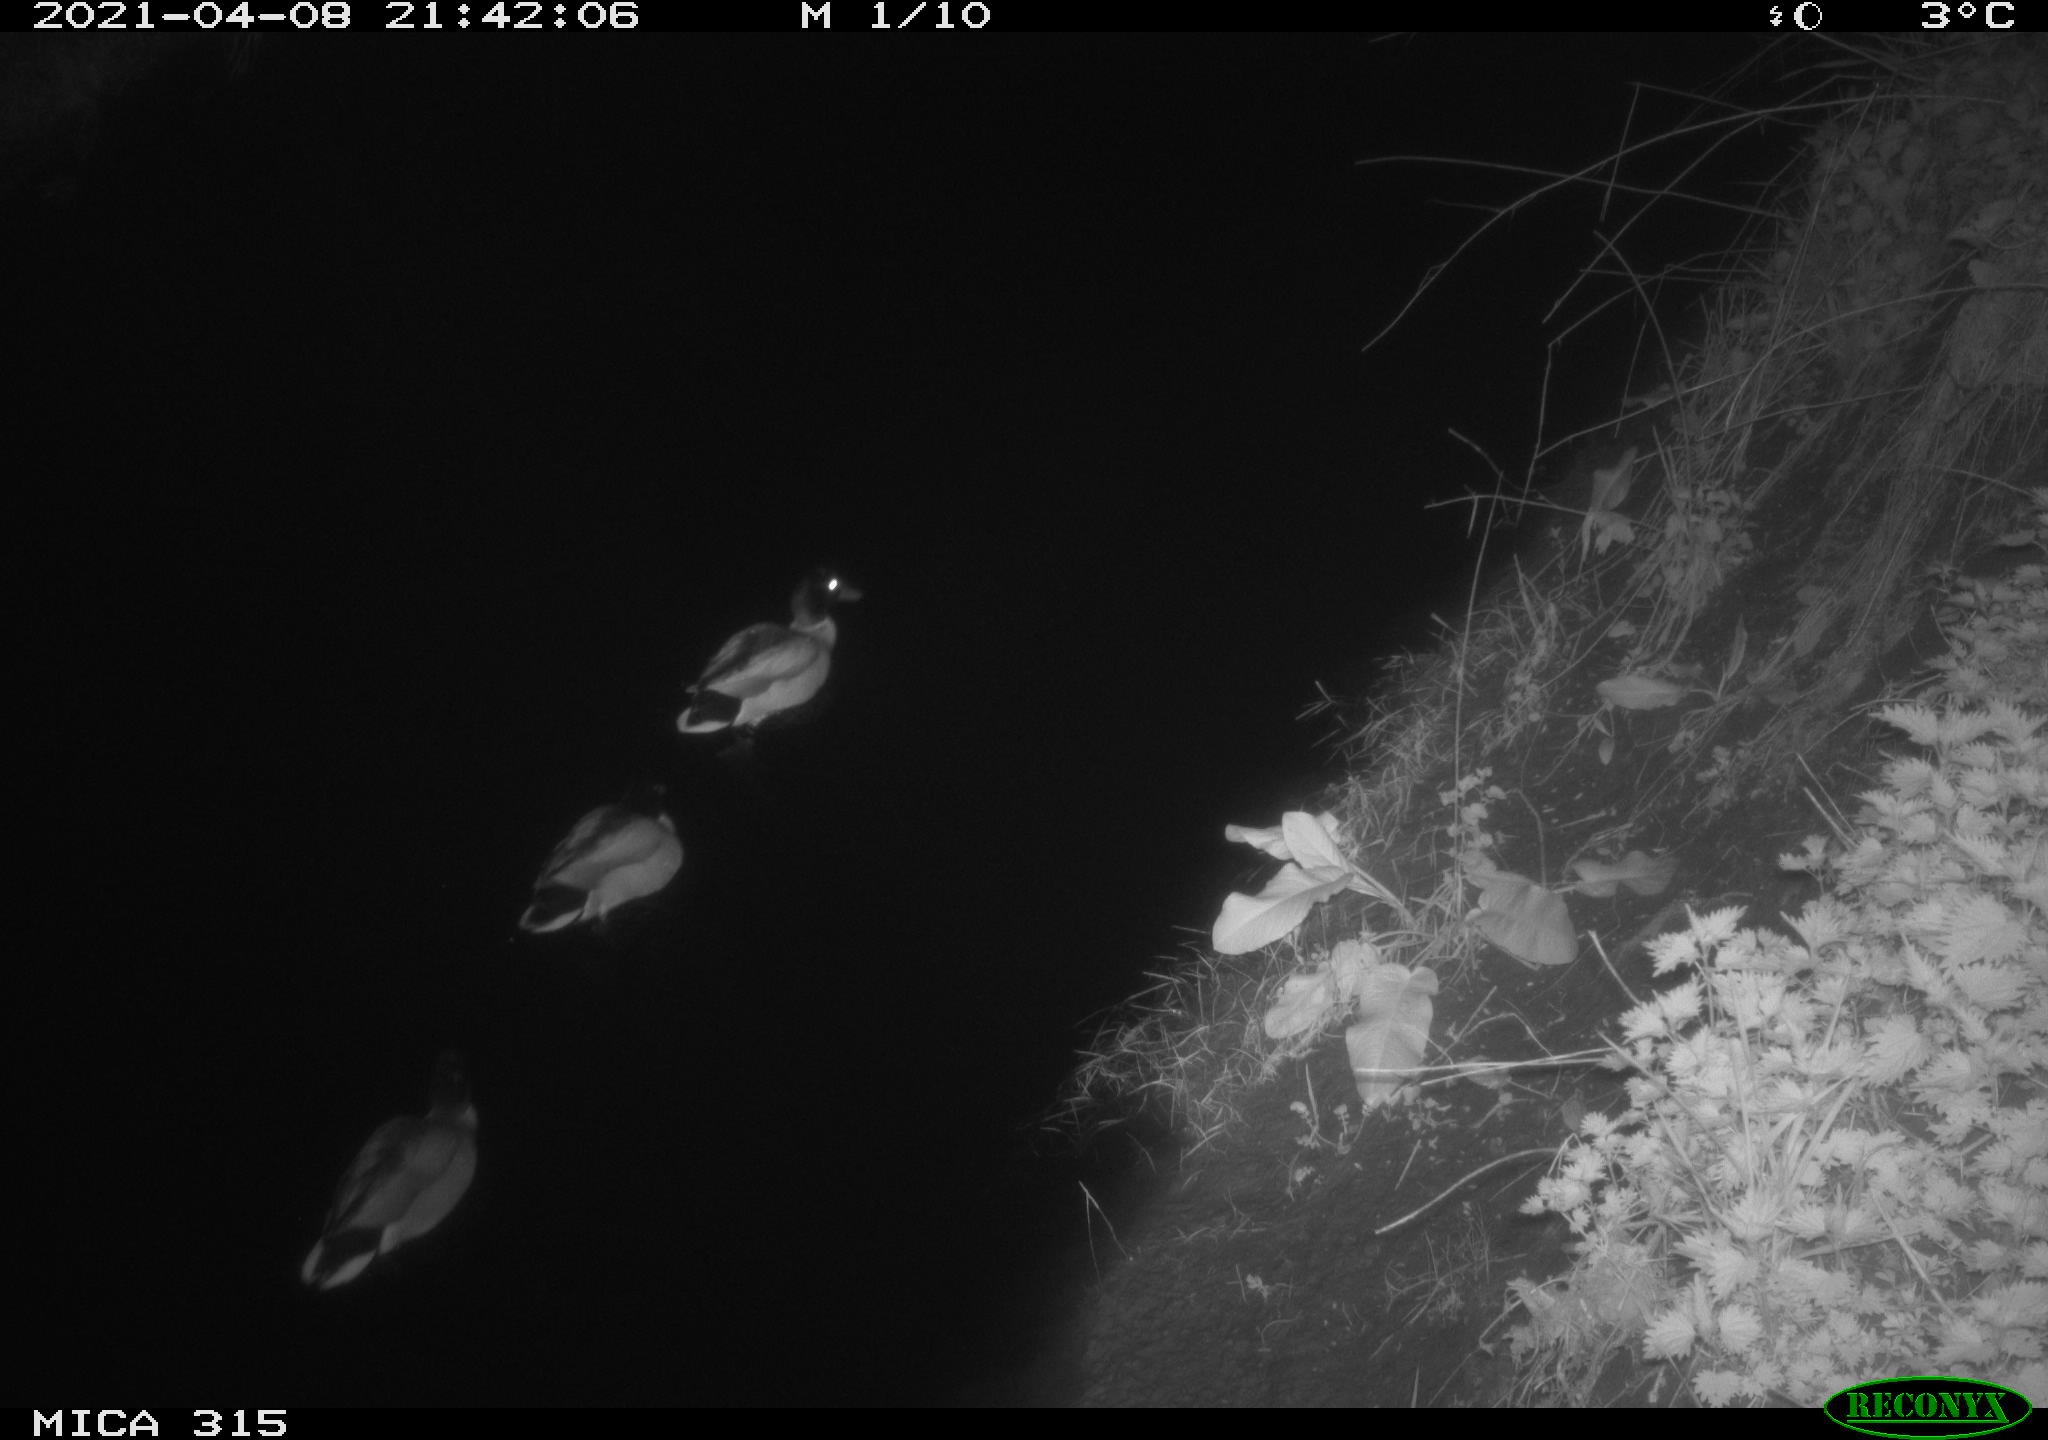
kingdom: Animalia
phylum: Chordata
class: Aves
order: Anseriformes
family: Anatidae
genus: Anas
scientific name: Anas platyrhynchos
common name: Mallard
